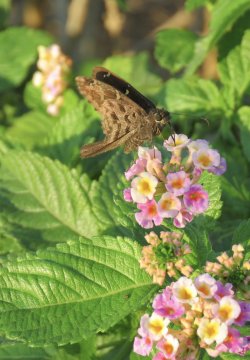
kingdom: Animalia
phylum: Arthropoda
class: Insecta
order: Lepidoptera
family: Hesperiidae
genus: Urbanus
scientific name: Urbanus dorantes
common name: Dorantes Longtail
